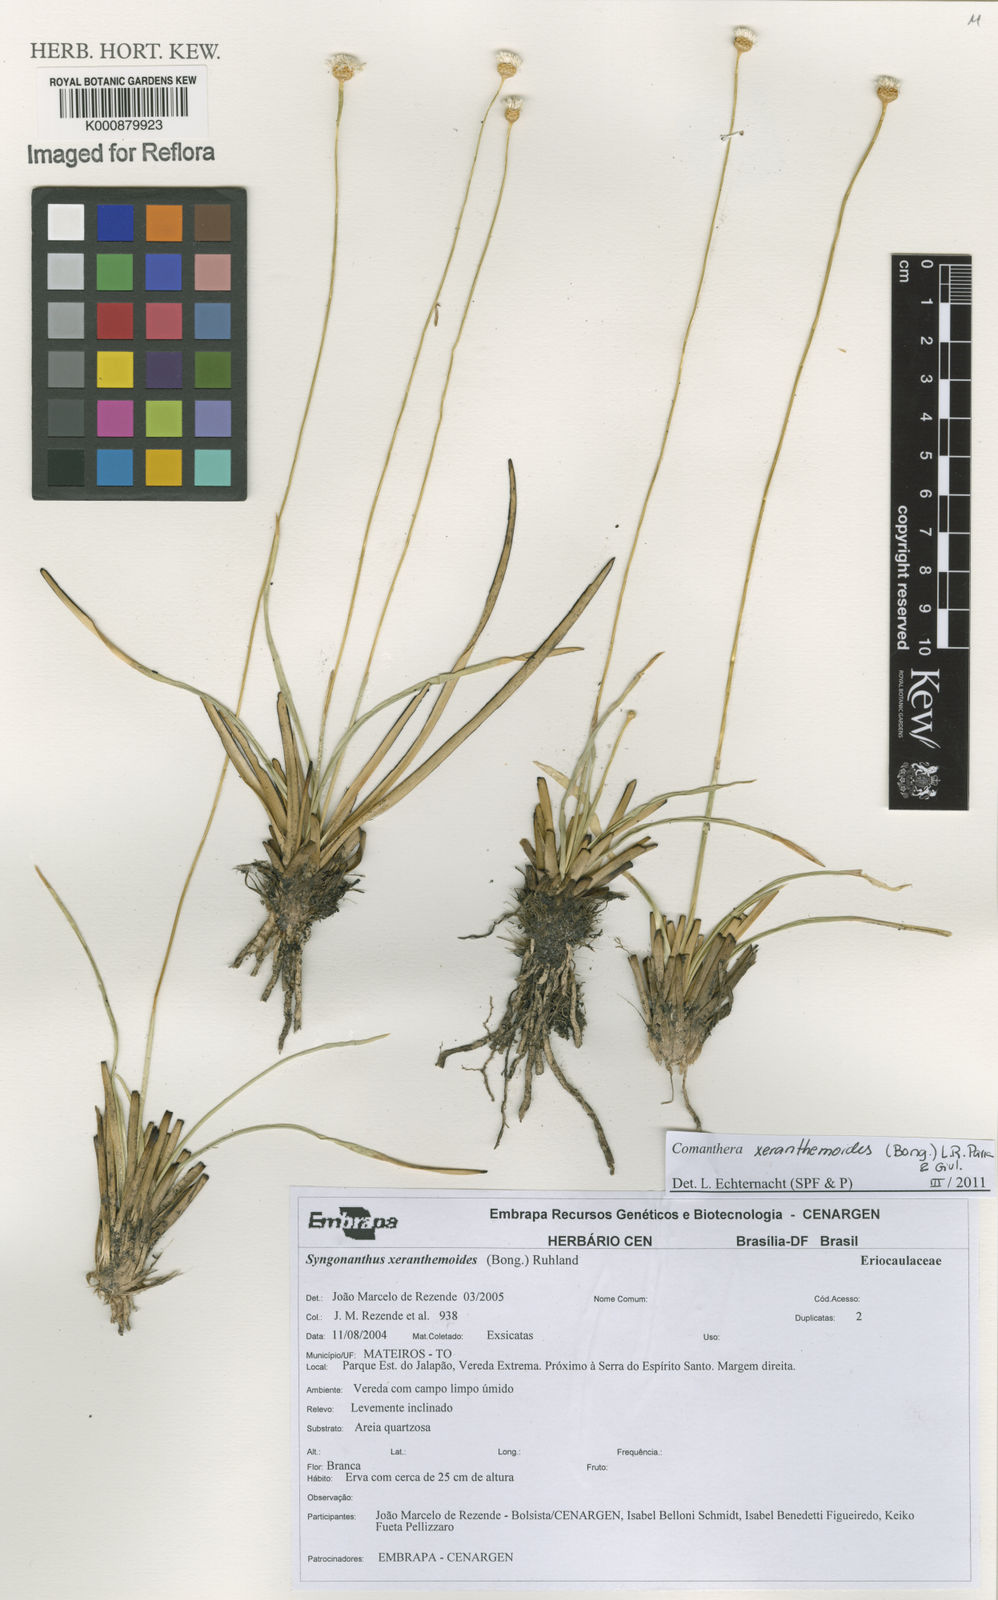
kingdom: Plantae
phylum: Tracheophyta
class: Liliopsida
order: Poales
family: Eriocaulaceae
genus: Comanthera
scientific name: Comanthera xeranthemoides
